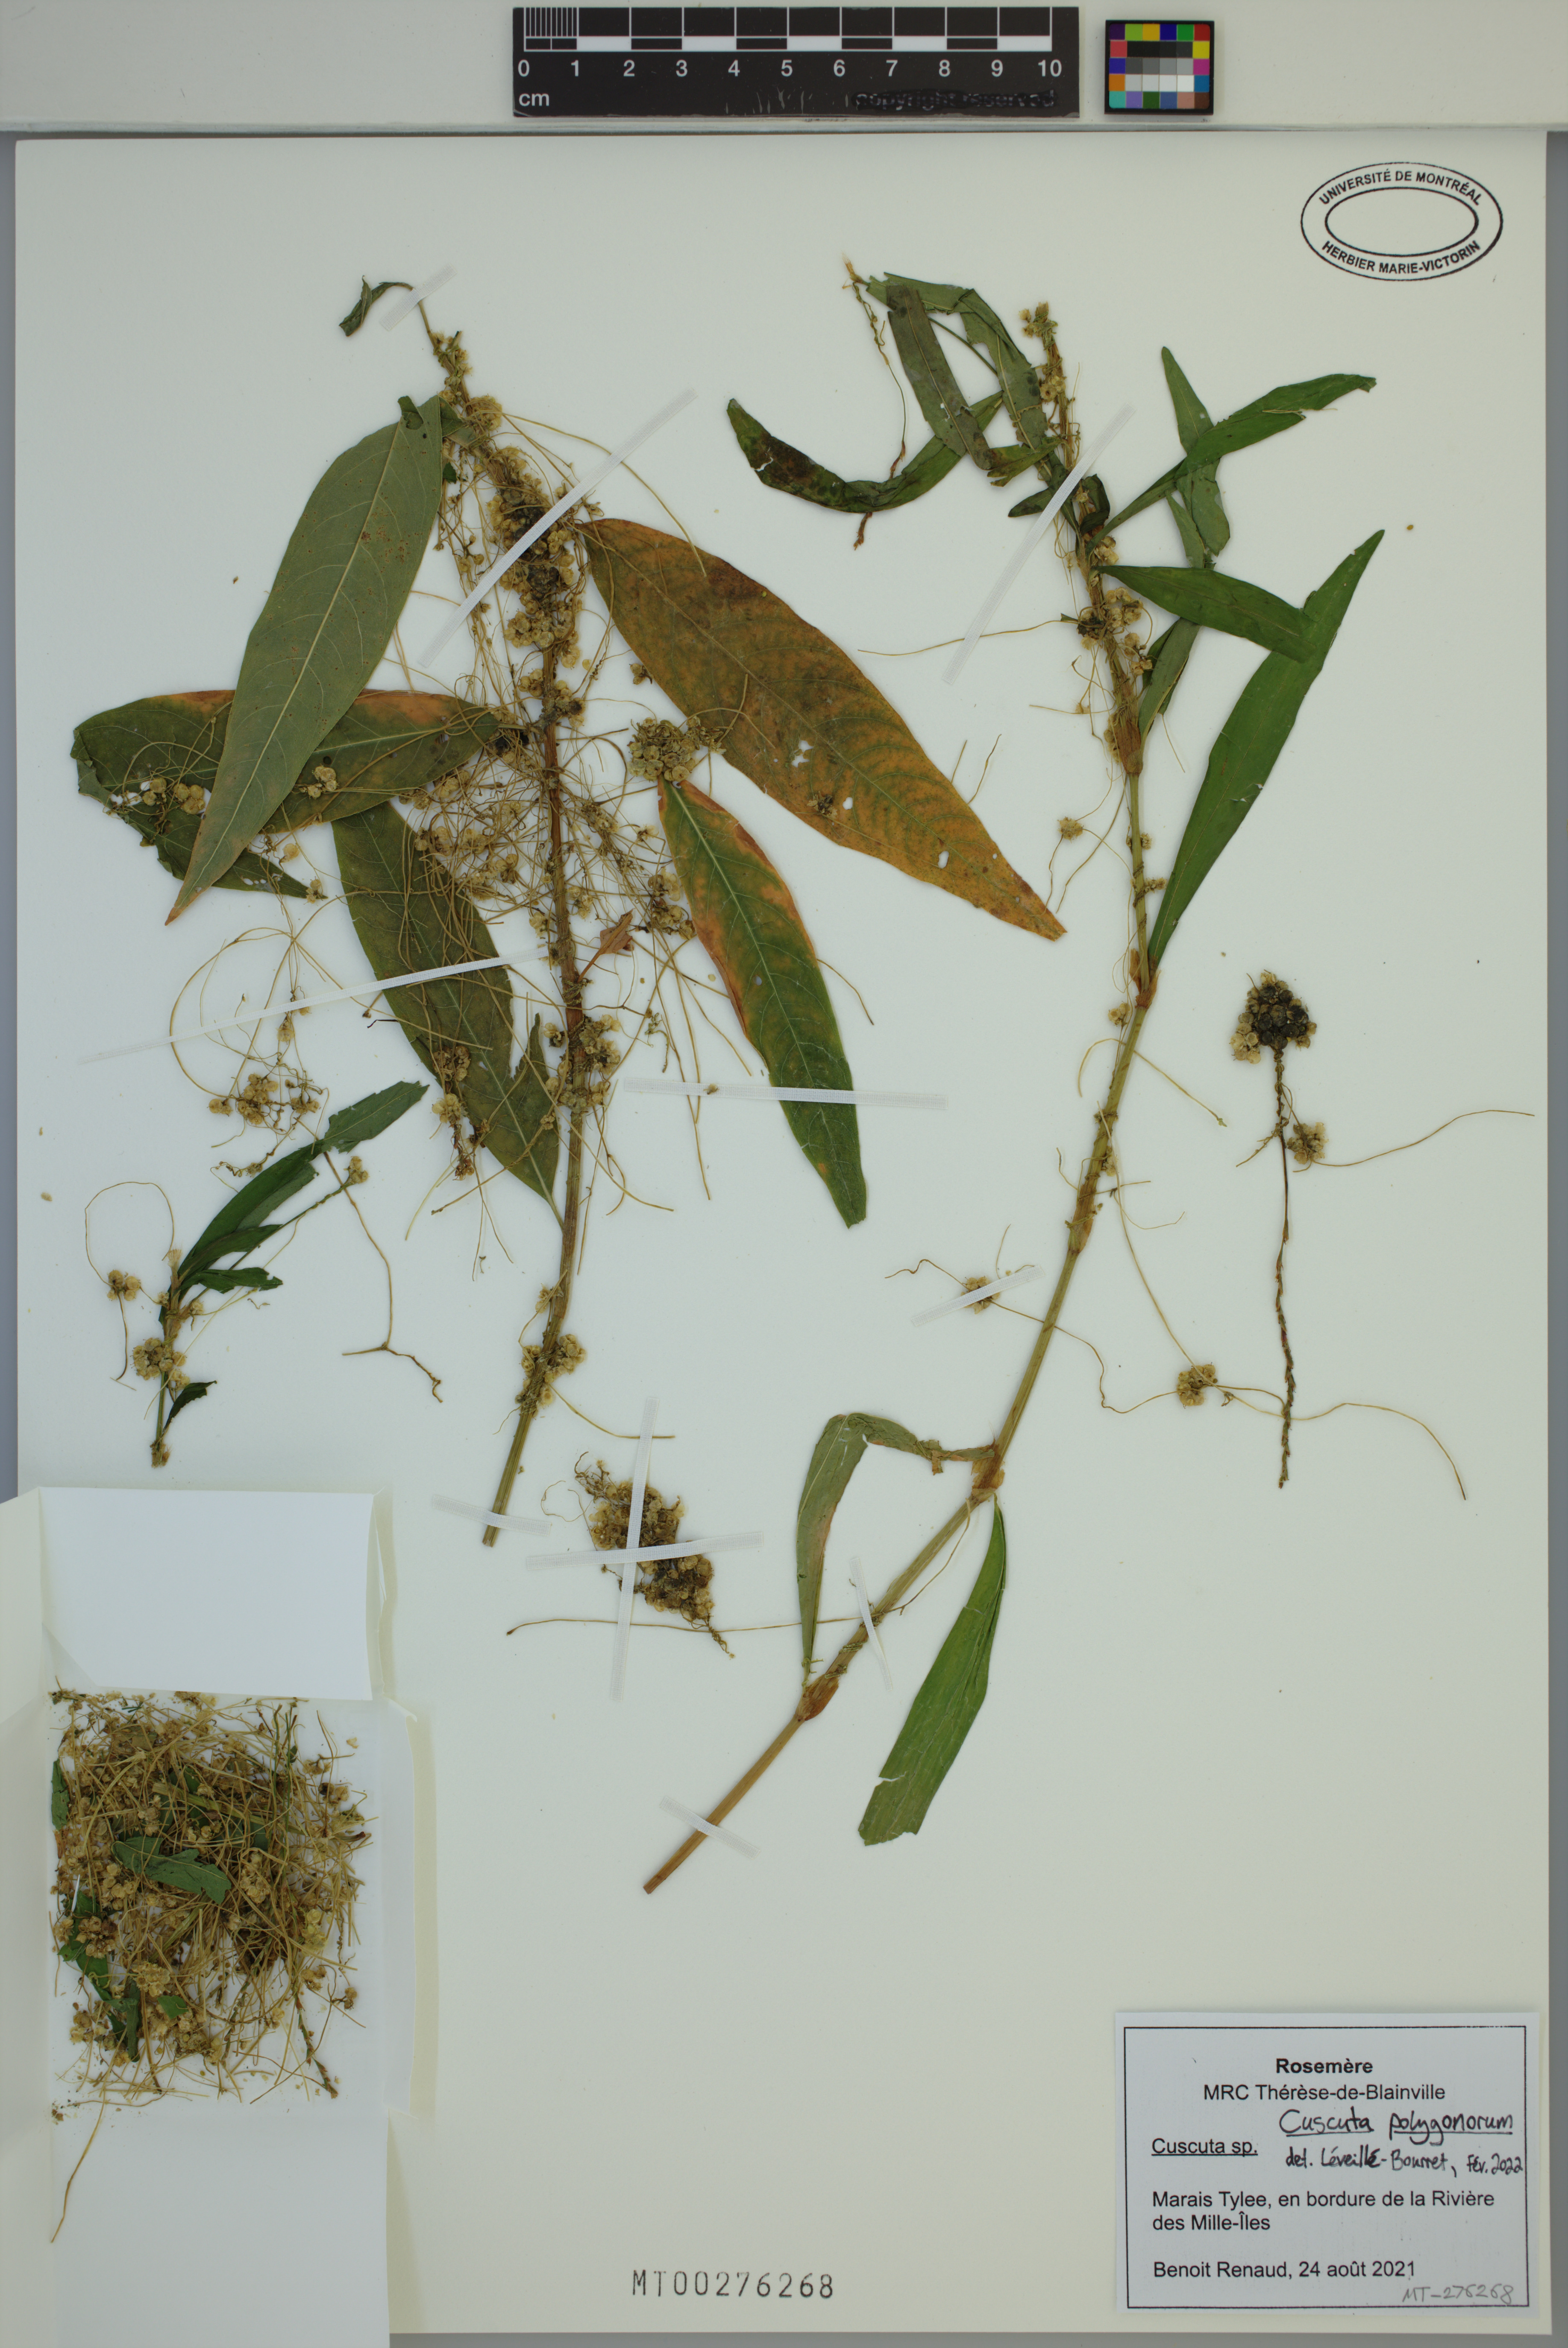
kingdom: Plantae
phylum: Tracheophyta
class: Magnoliopsida
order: Solanales
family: Convolvulaceae
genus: Cuscuta
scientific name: Cuscuta polygonorum
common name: Polygonum dodder
